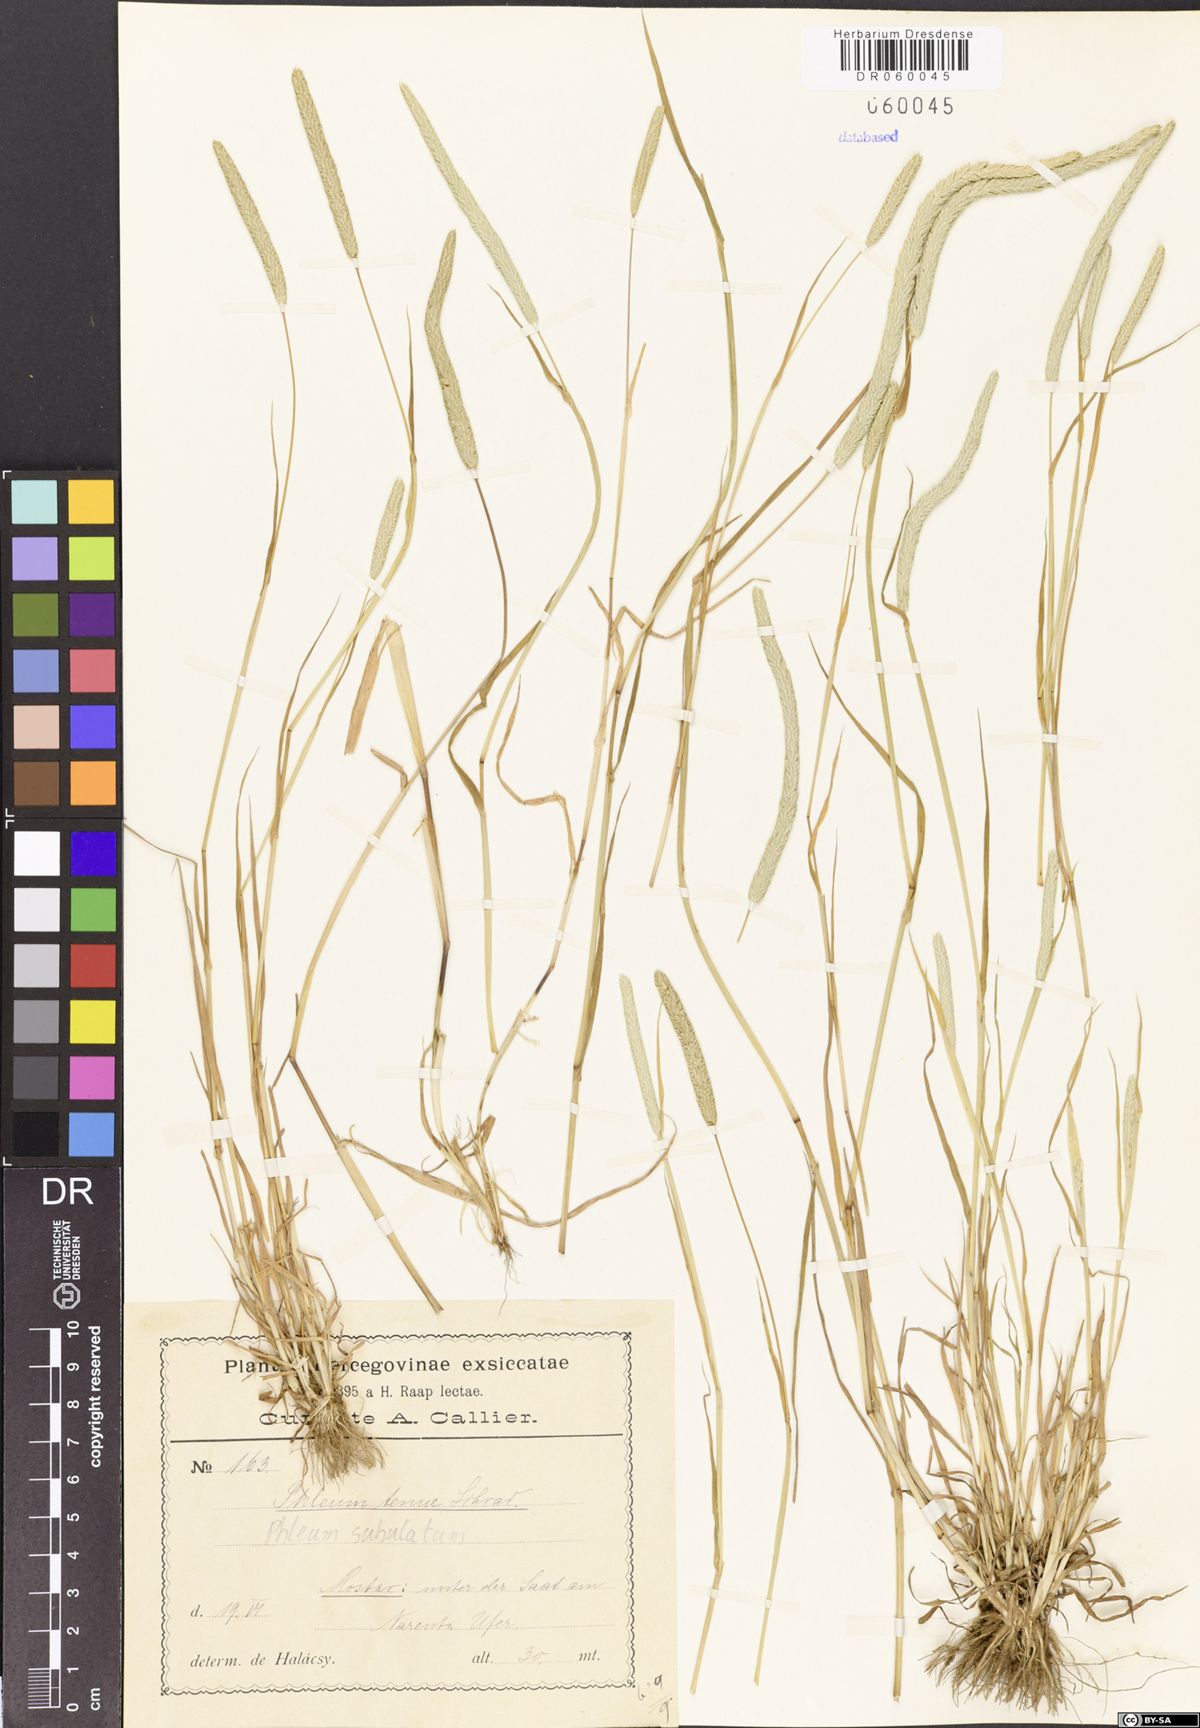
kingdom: Plantae
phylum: Tracheophyta
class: Liliopsida
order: Poales
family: Poaceae
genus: Phleum
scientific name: Phleum subulatum
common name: Italian timothy
